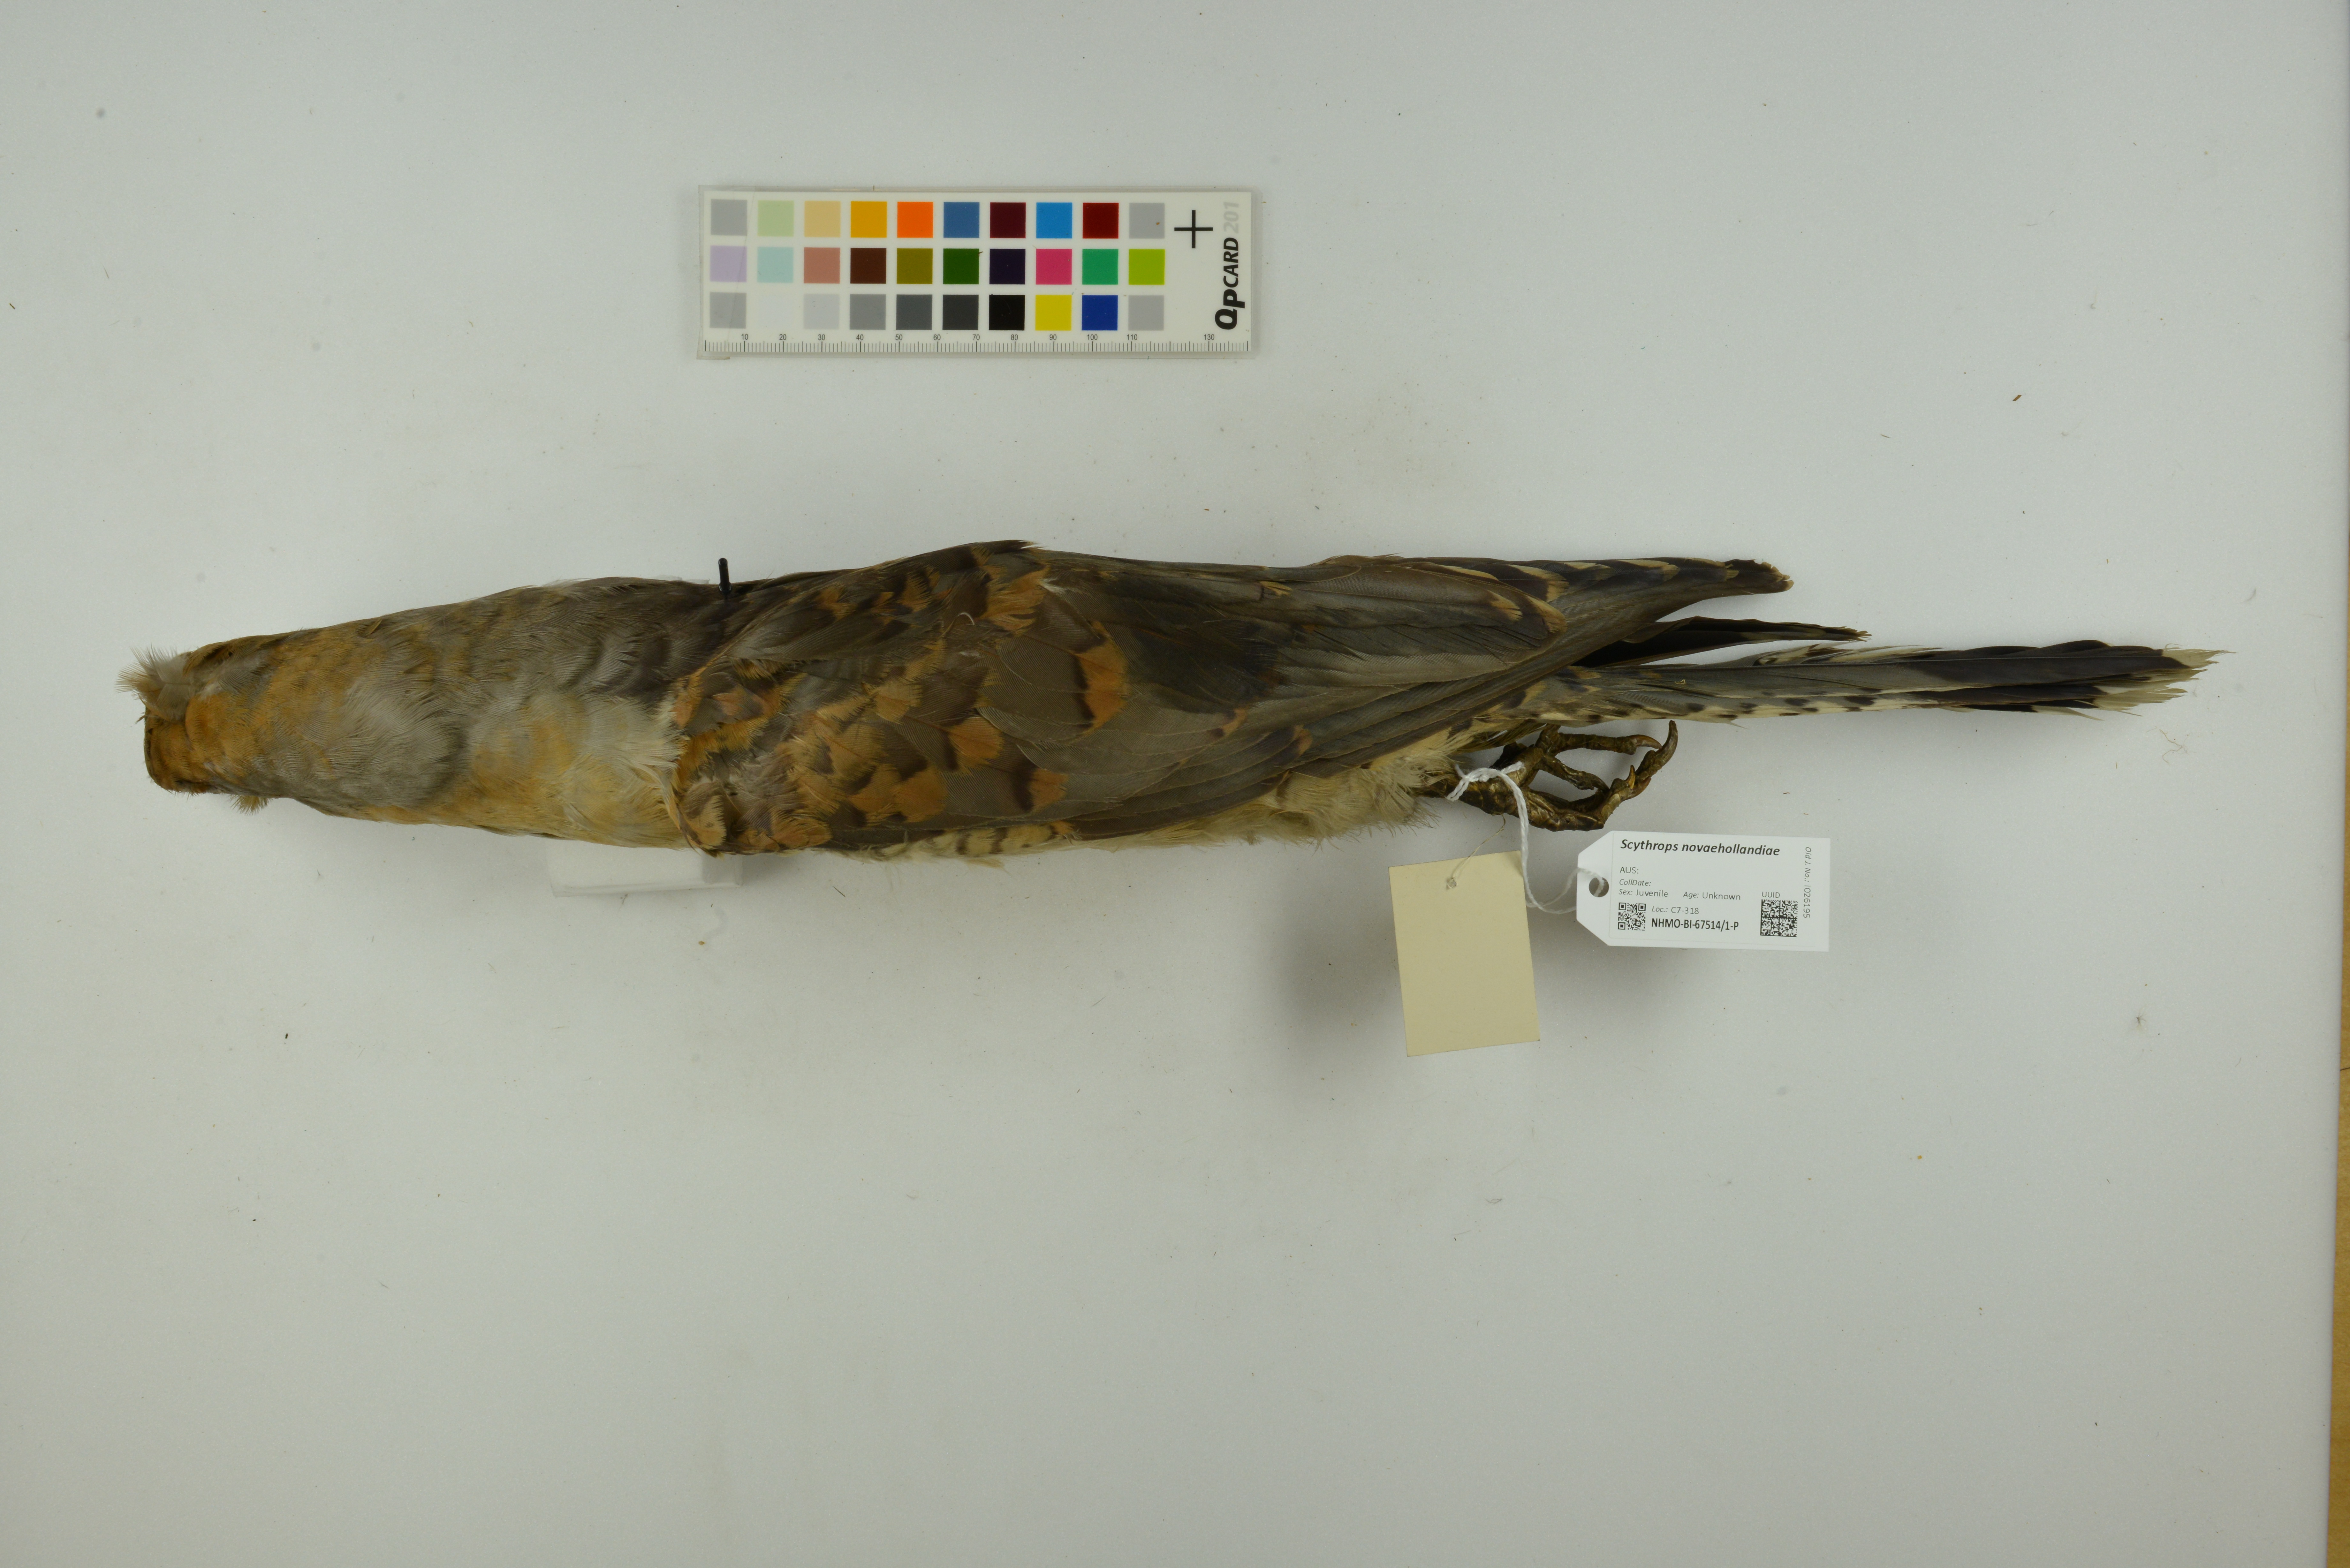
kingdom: Animalia
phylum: Chordata
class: Aves
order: Cuculiformes
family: Cuculidae
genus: Scythrops
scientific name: Scythrops novaehollandiae
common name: Channel-billed cuckoo
